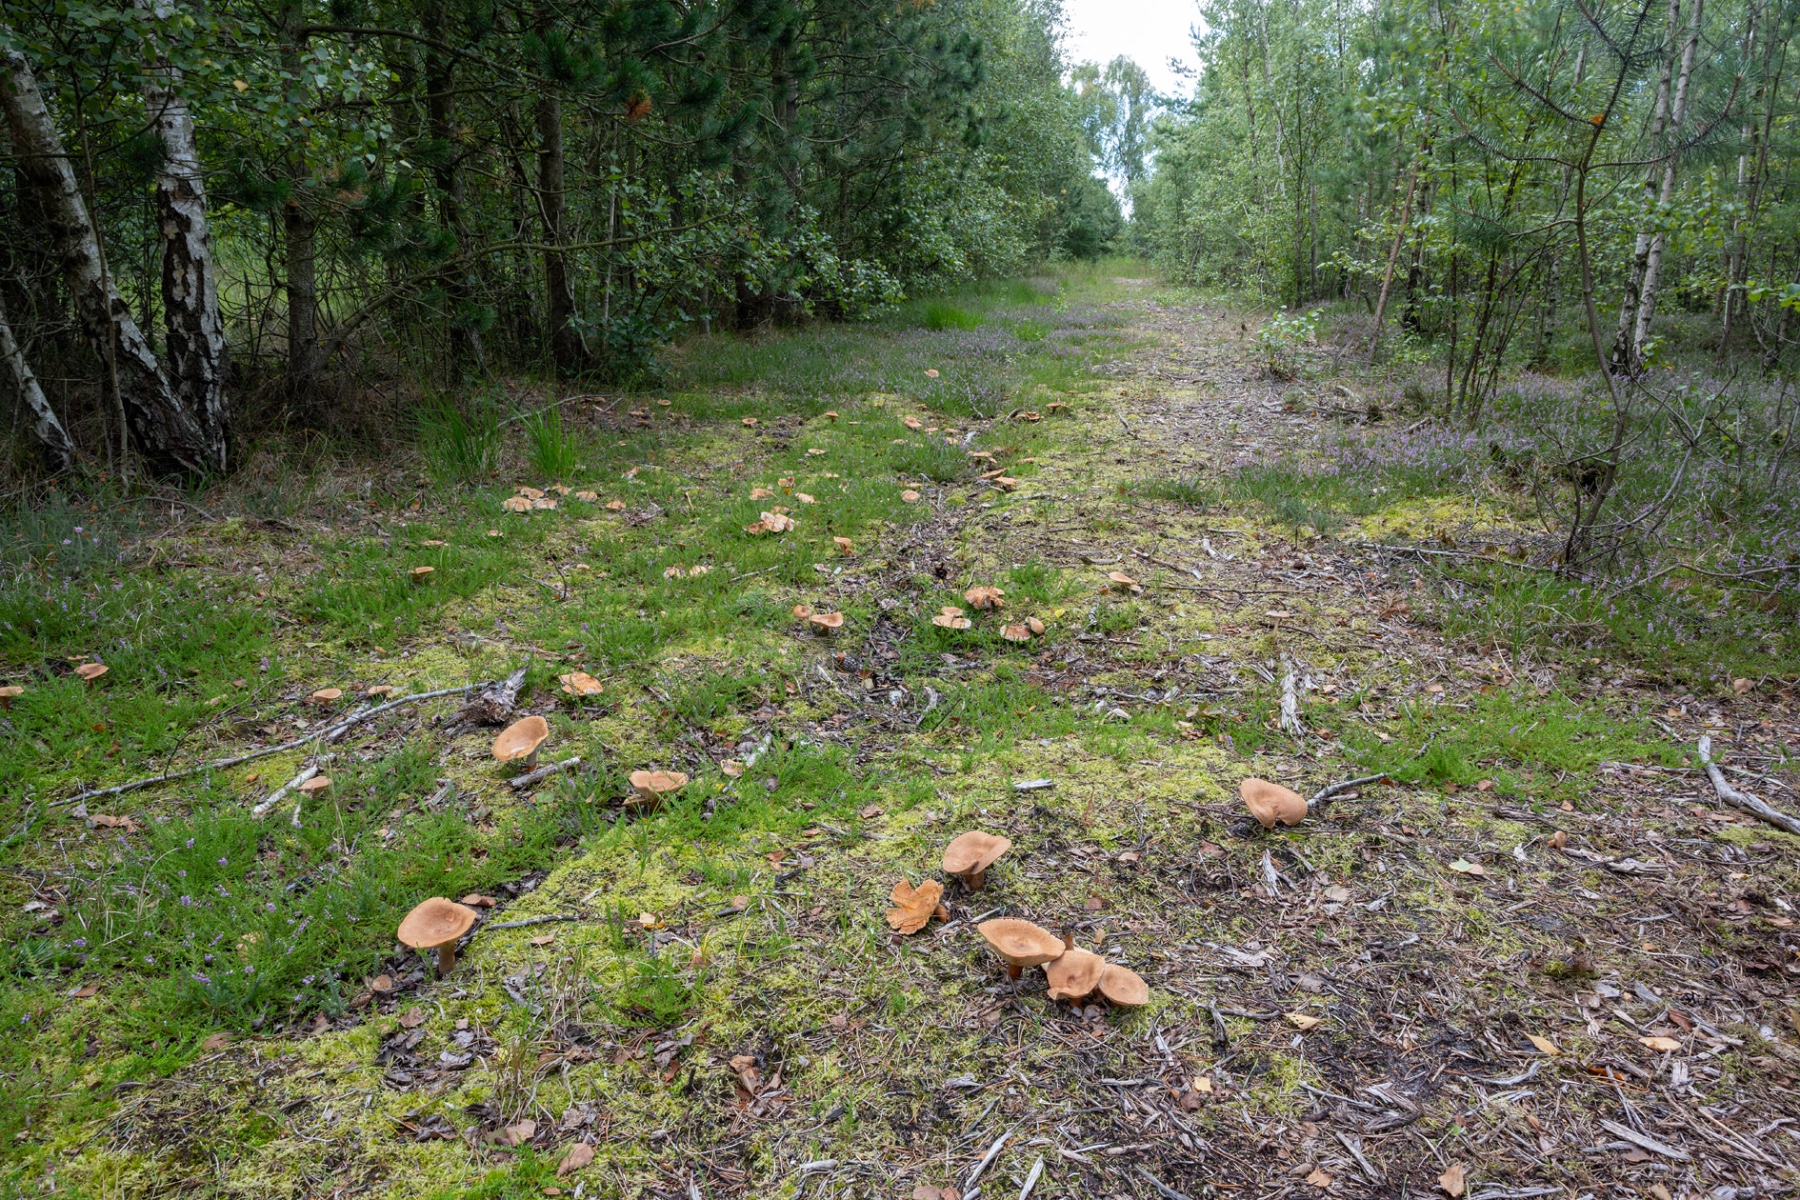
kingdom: Fungi
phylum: Basidiomycota
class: Agaricomycetes
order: Russulales
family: Russulaceae
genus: Lactarius
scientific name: Lactarius helvus
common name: mose-mælkehat
